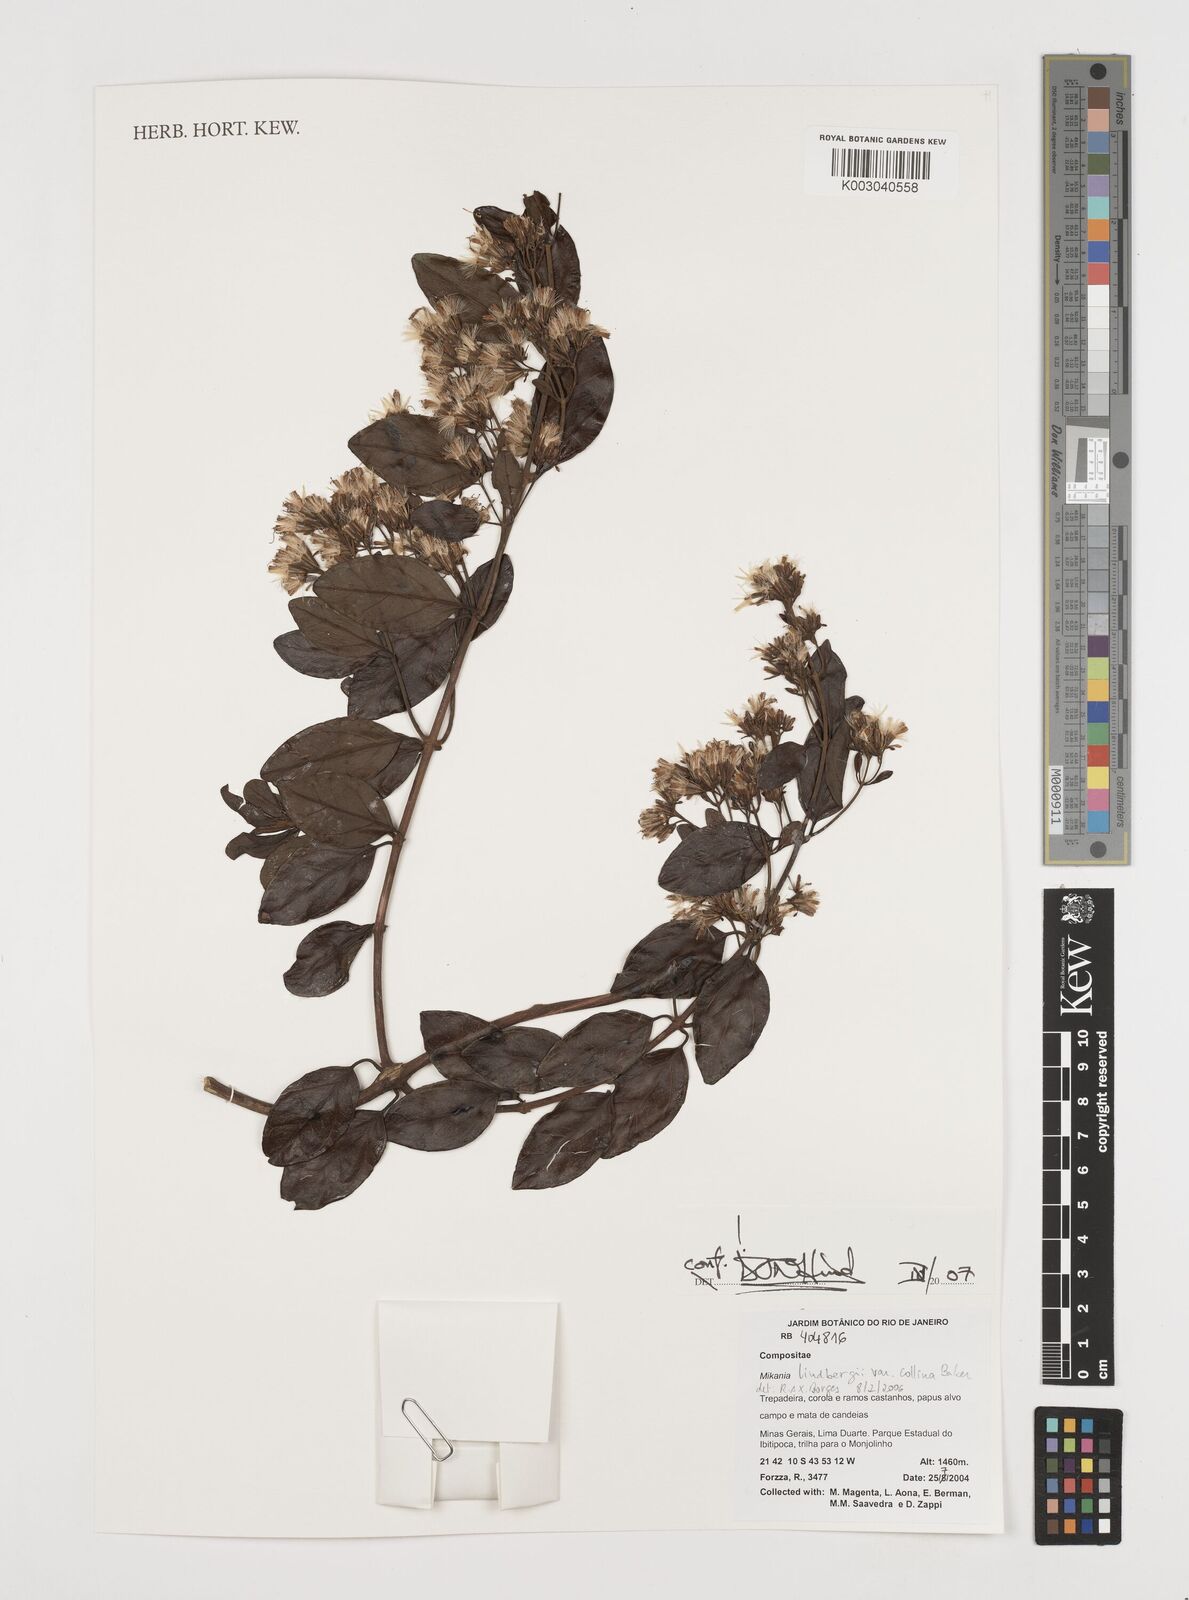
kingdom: Plantae
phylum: Tracheophyta
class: Magnoliopsida
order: Asterales
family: Asteraceae
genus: Mikania
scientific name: Mikania lindbergii
